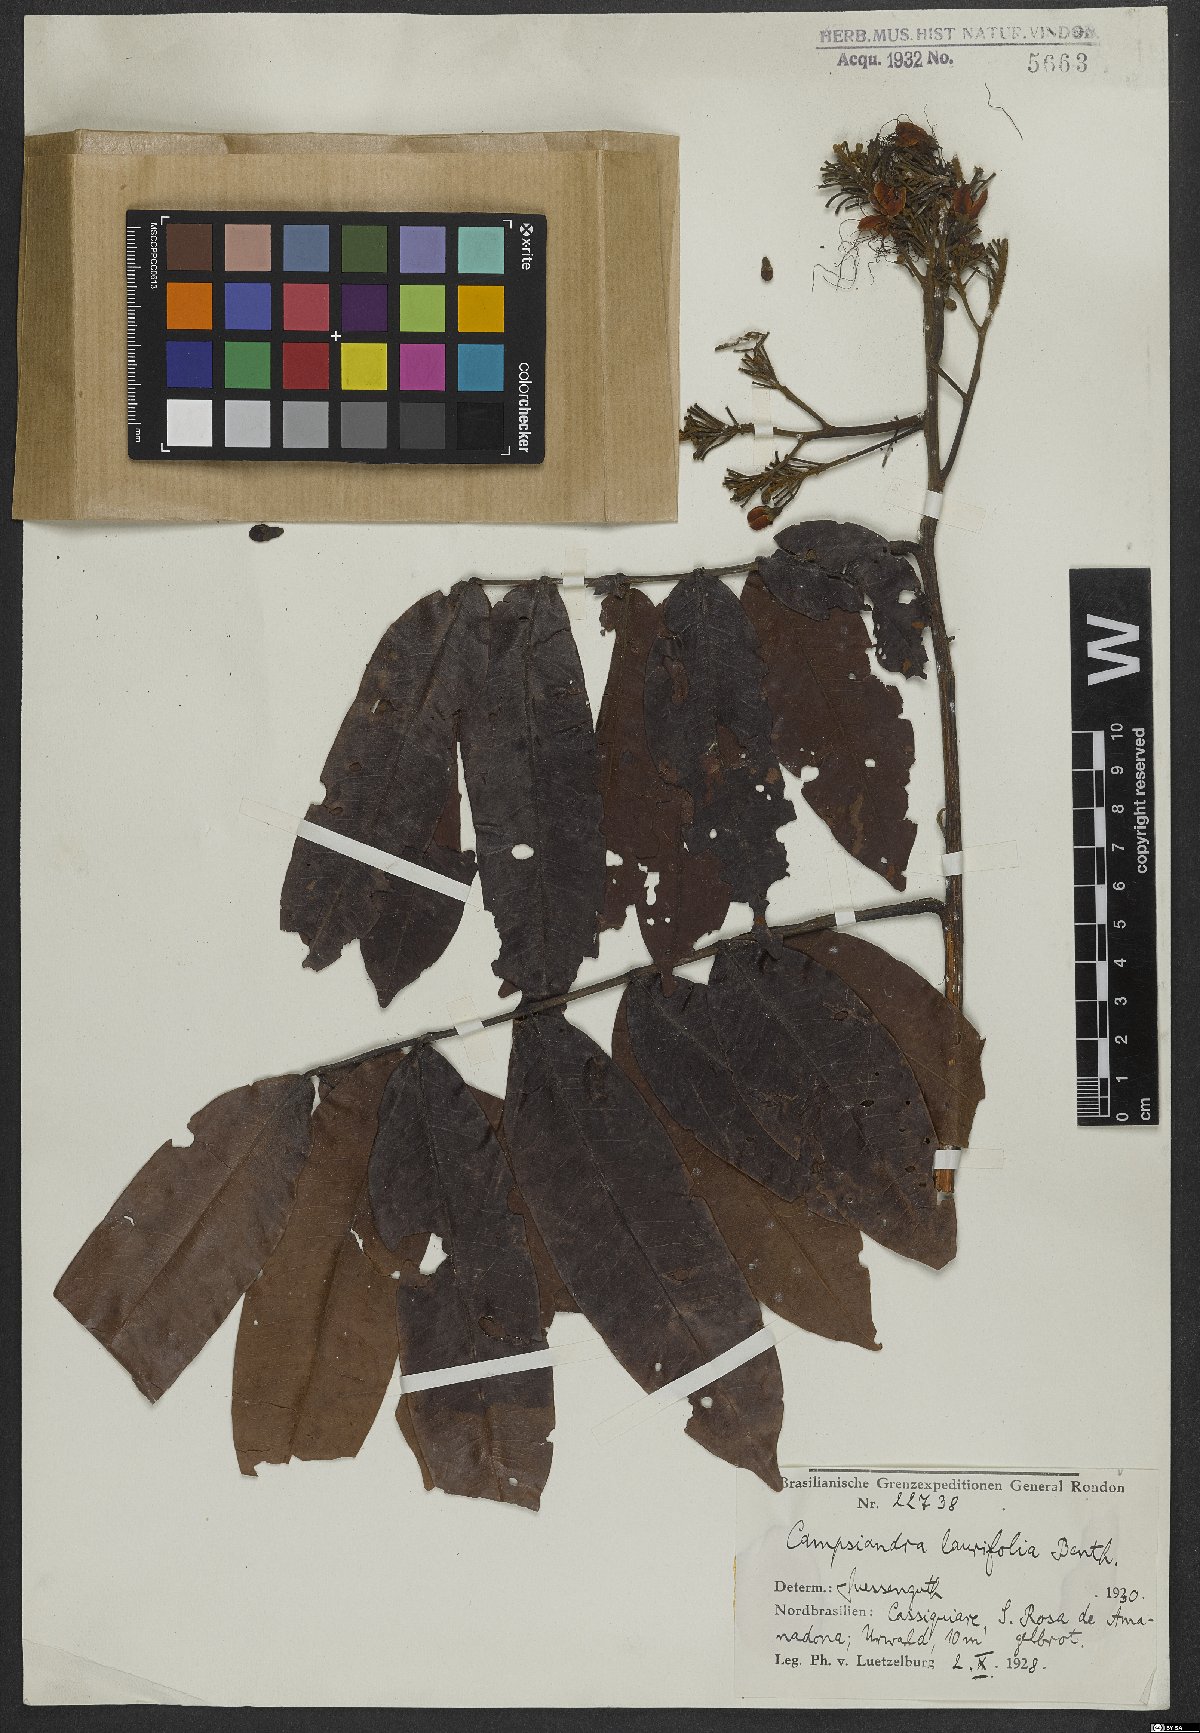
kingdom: Plantae
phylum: Tracheophyta
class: Magnoliopsida
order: Fabales
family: Fabaceae
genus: Campsiandra
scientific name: Campsiandra laurifolia
